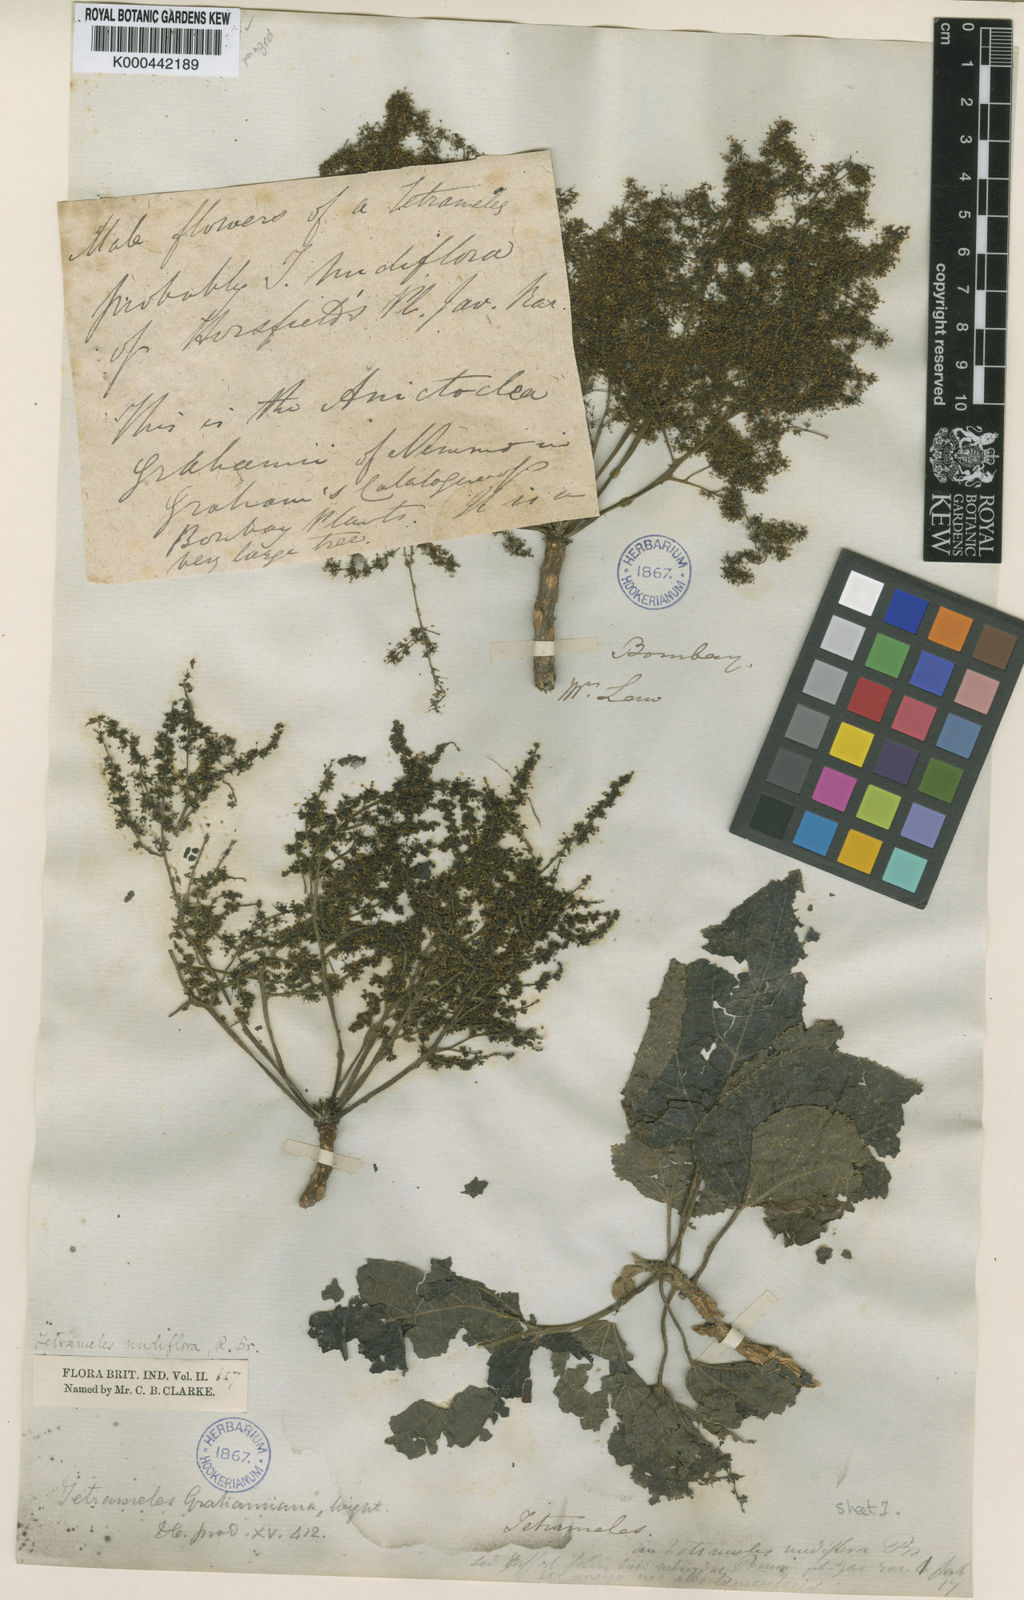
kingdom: Plantae
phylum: Tracheophyta
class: Magnoliopsida
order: Cucurbitales
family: Tetramelaceae
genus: Tetrameles
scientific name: Tetrameles nudiflora
